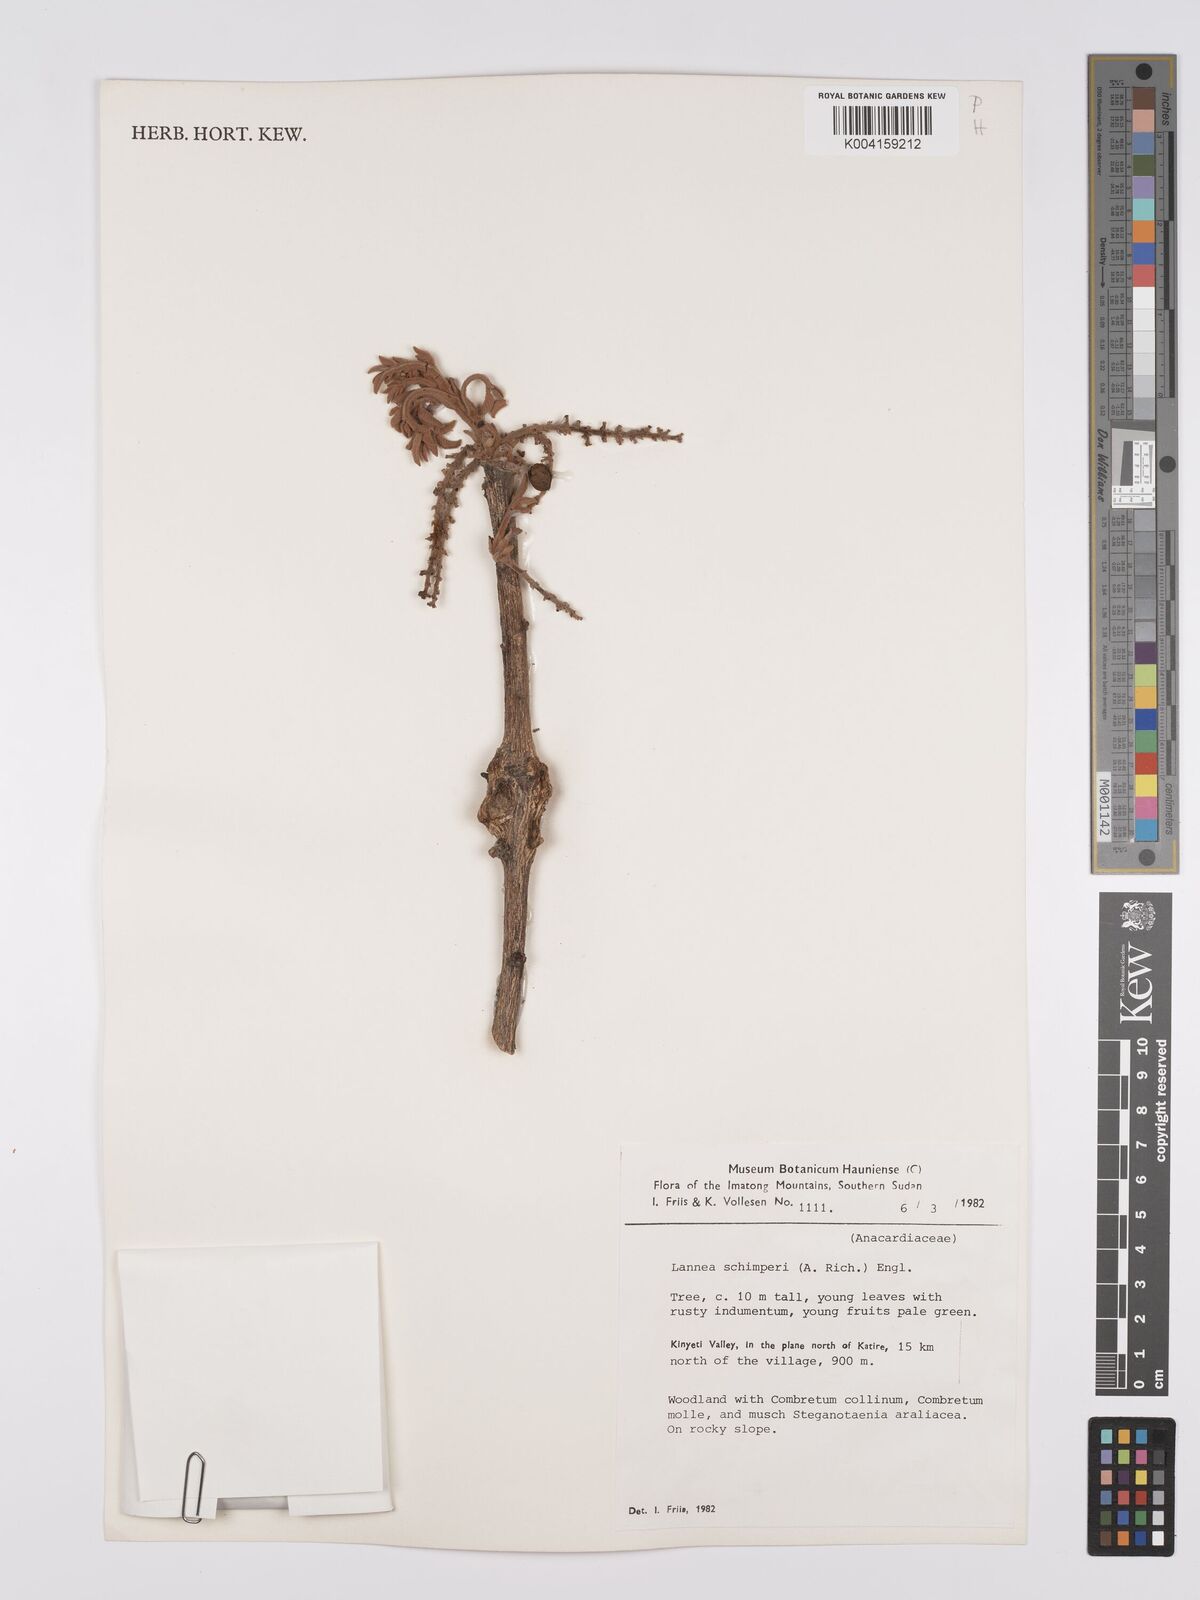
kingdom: Plantae
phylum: Tracheophyta
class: Magnoliopsida
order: Sapindales
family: Anacardiaceae
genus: Lannea
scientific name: Lannea schimperi
